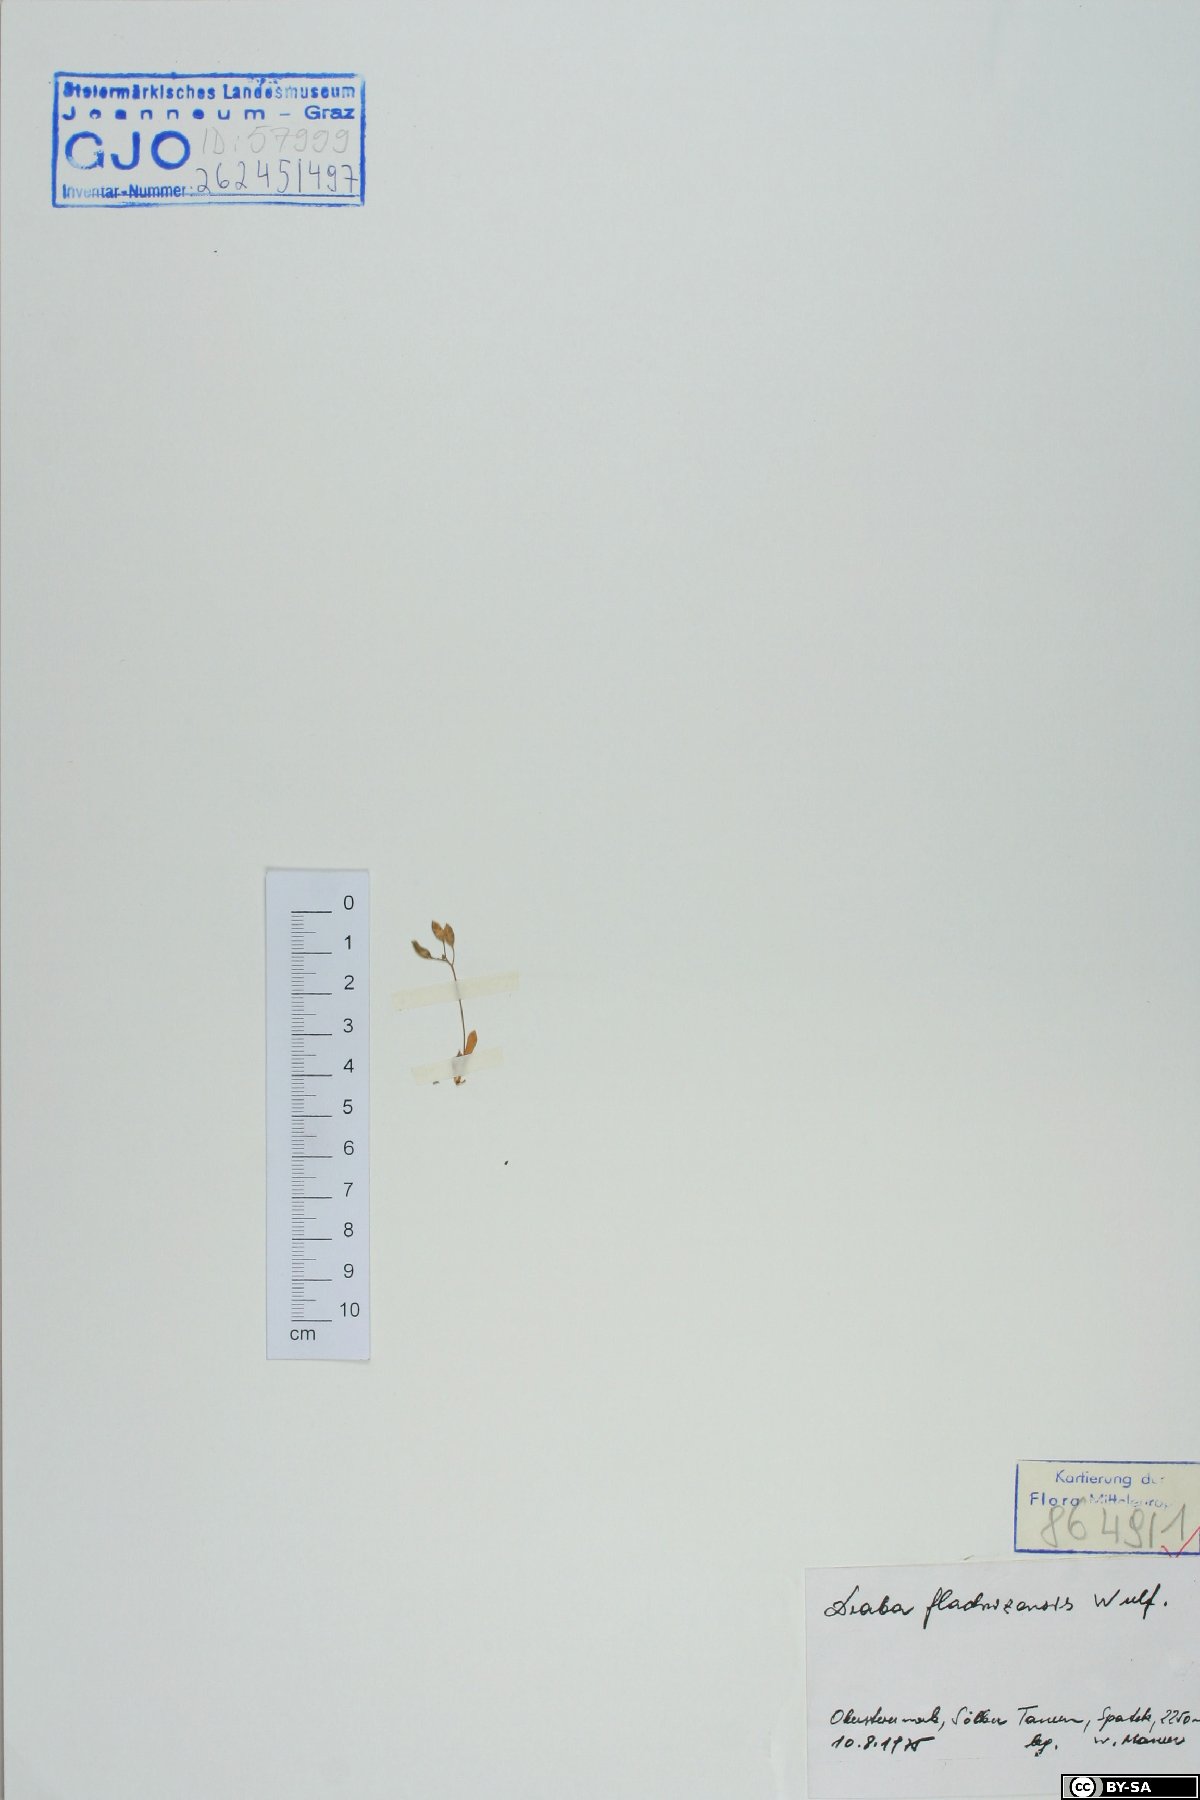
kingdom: Plantae
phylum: Tracheophyta
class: Magnoliopsida
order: Brassicales
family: Brassicaceae
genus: Draba
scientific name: Draba fladnizensis
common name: Austrian draba
